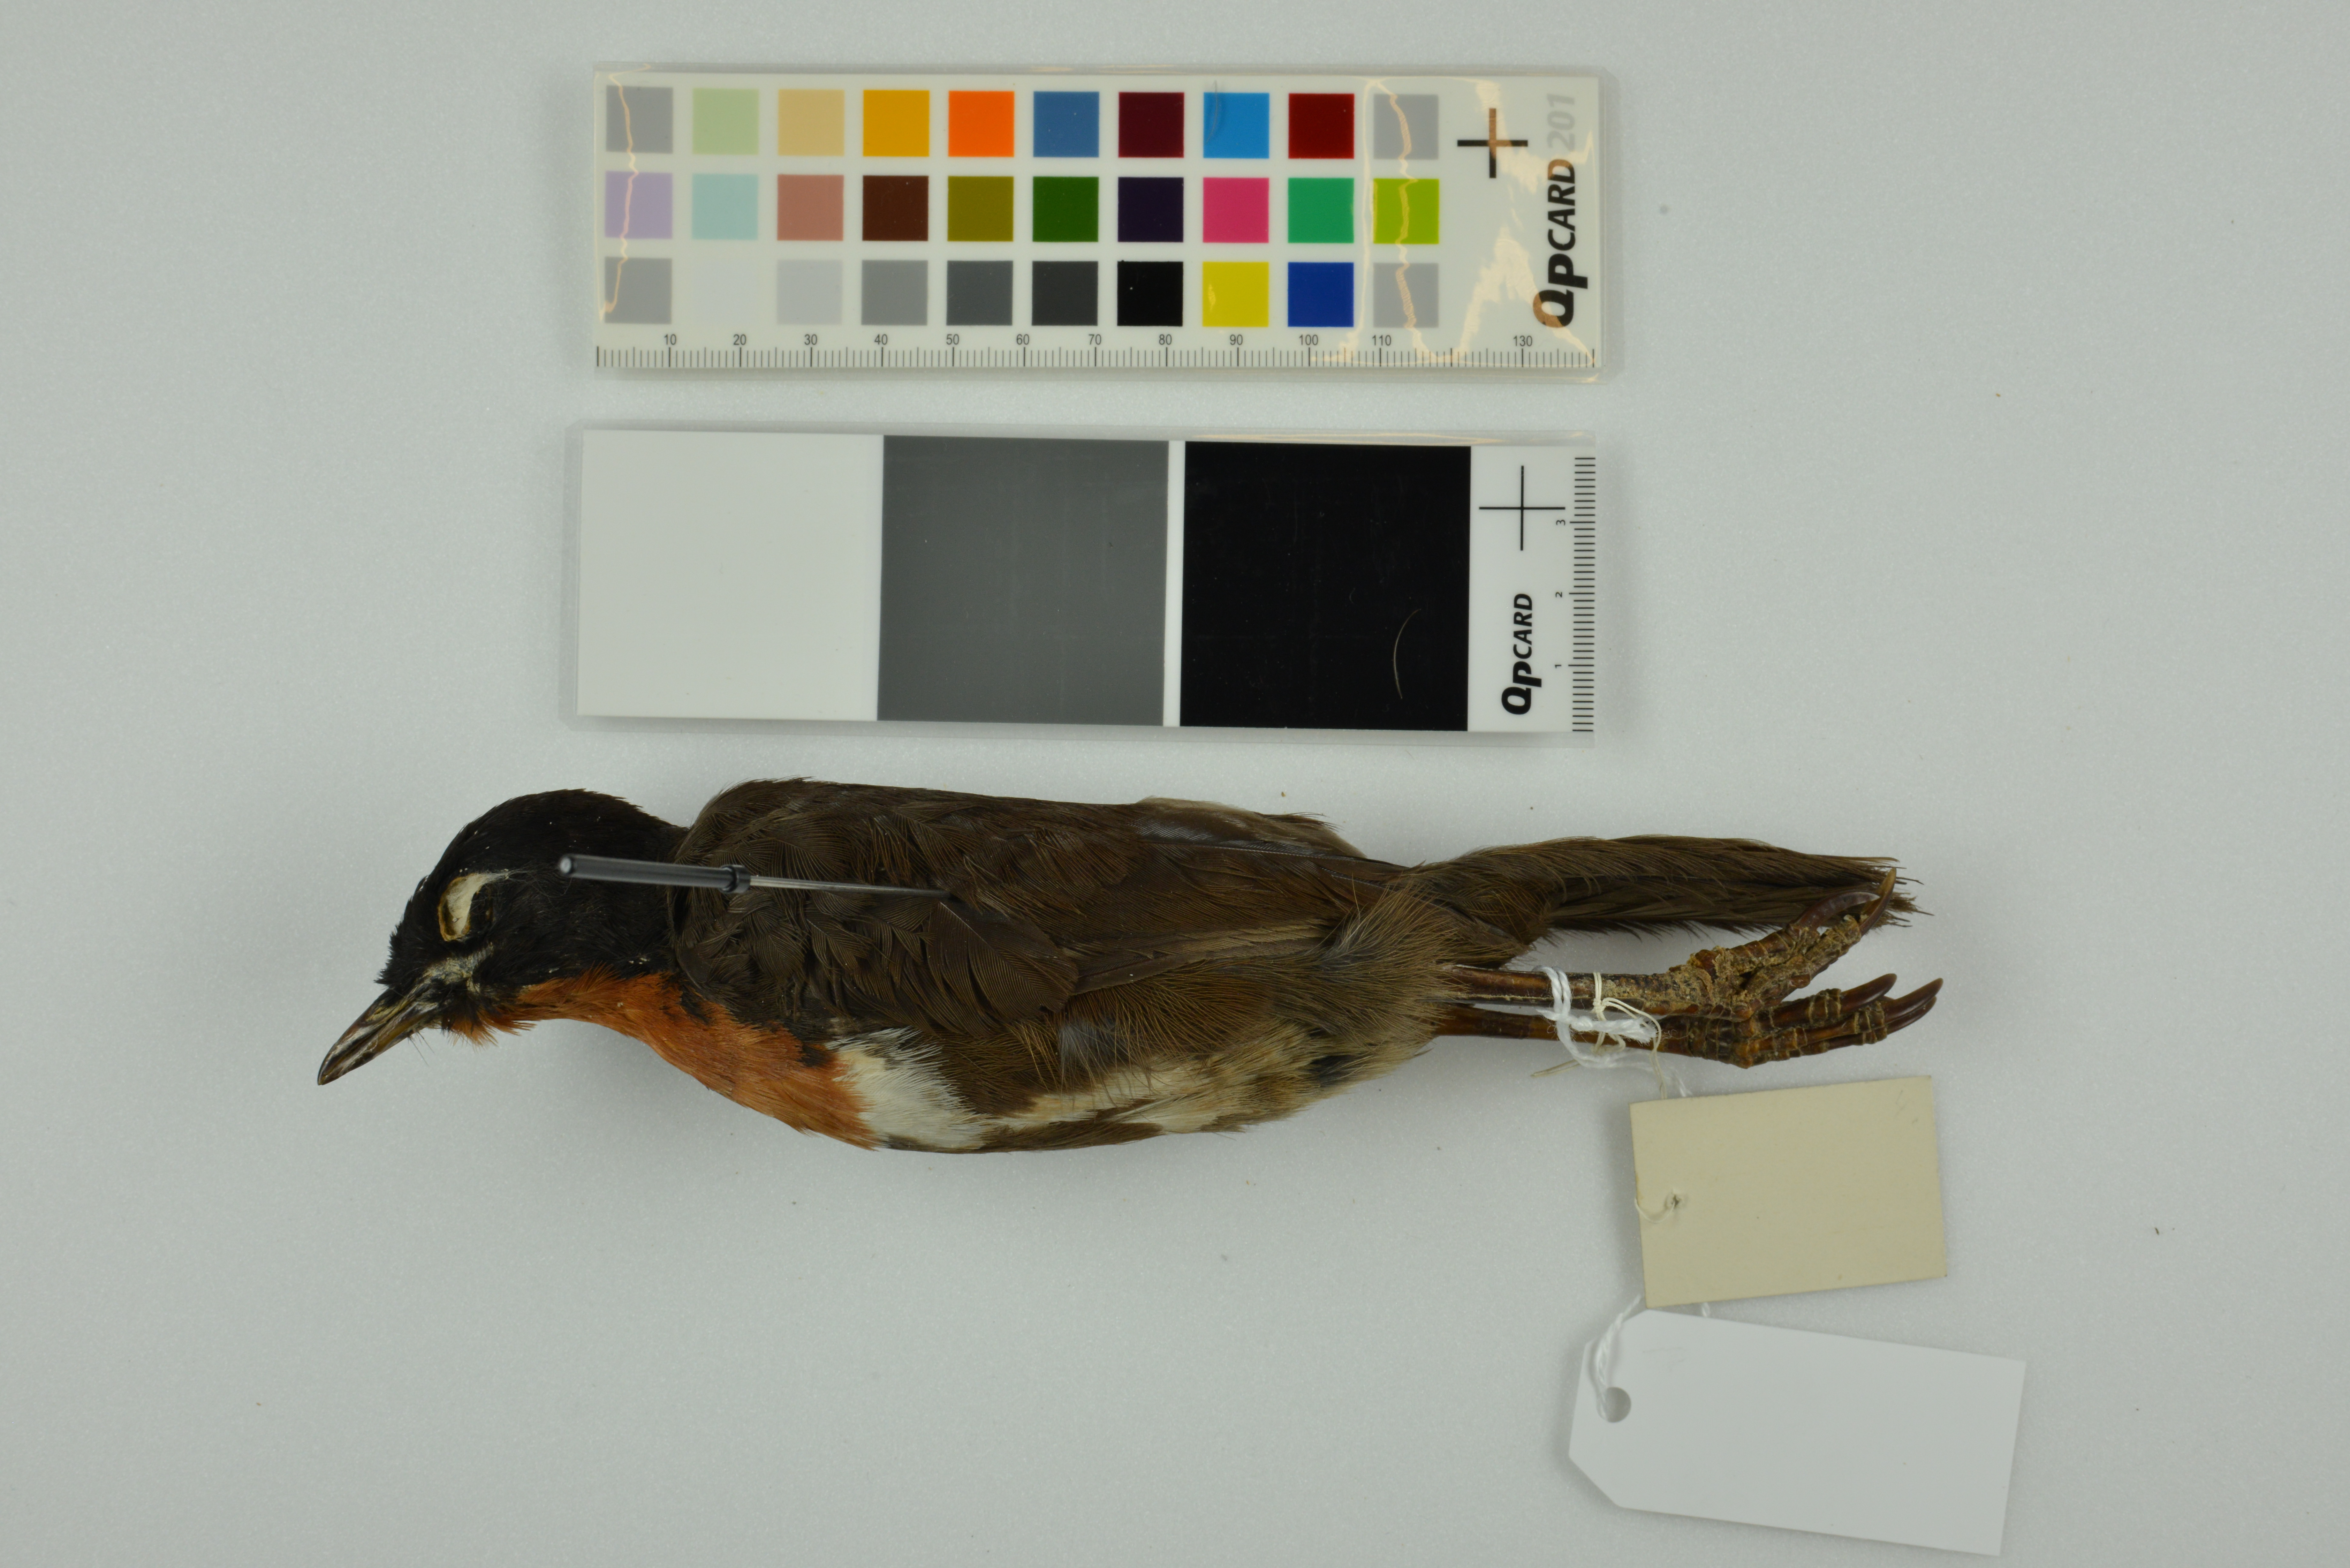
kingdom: Animalia
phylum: Chordata
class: Aves
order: Passeriformes
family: Orthonychidae
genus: Orthonyx
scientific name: Orthonyx spaldingii
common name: Chowchilla
